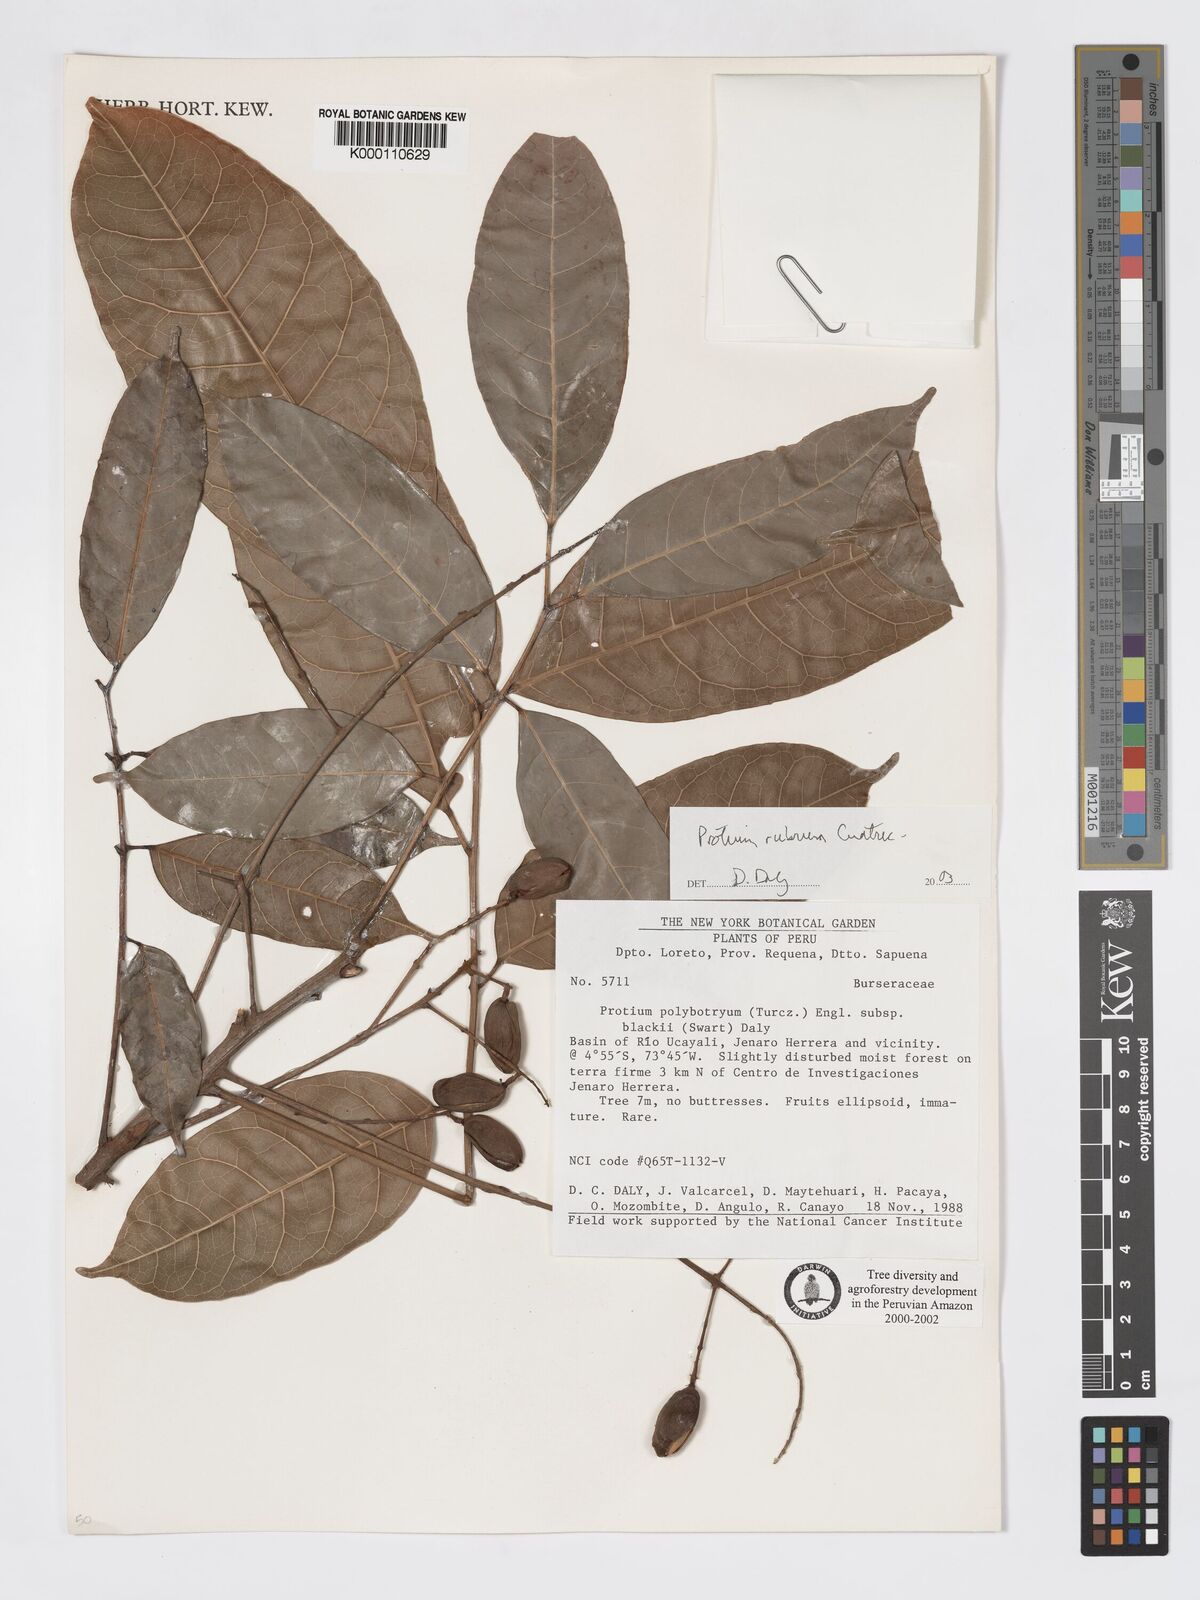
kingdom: Plantae
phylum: Tracheophyta
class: Magnoliopsida
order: Sapindales
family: Burseraceae
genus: Protium
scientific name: Protium rubrum
